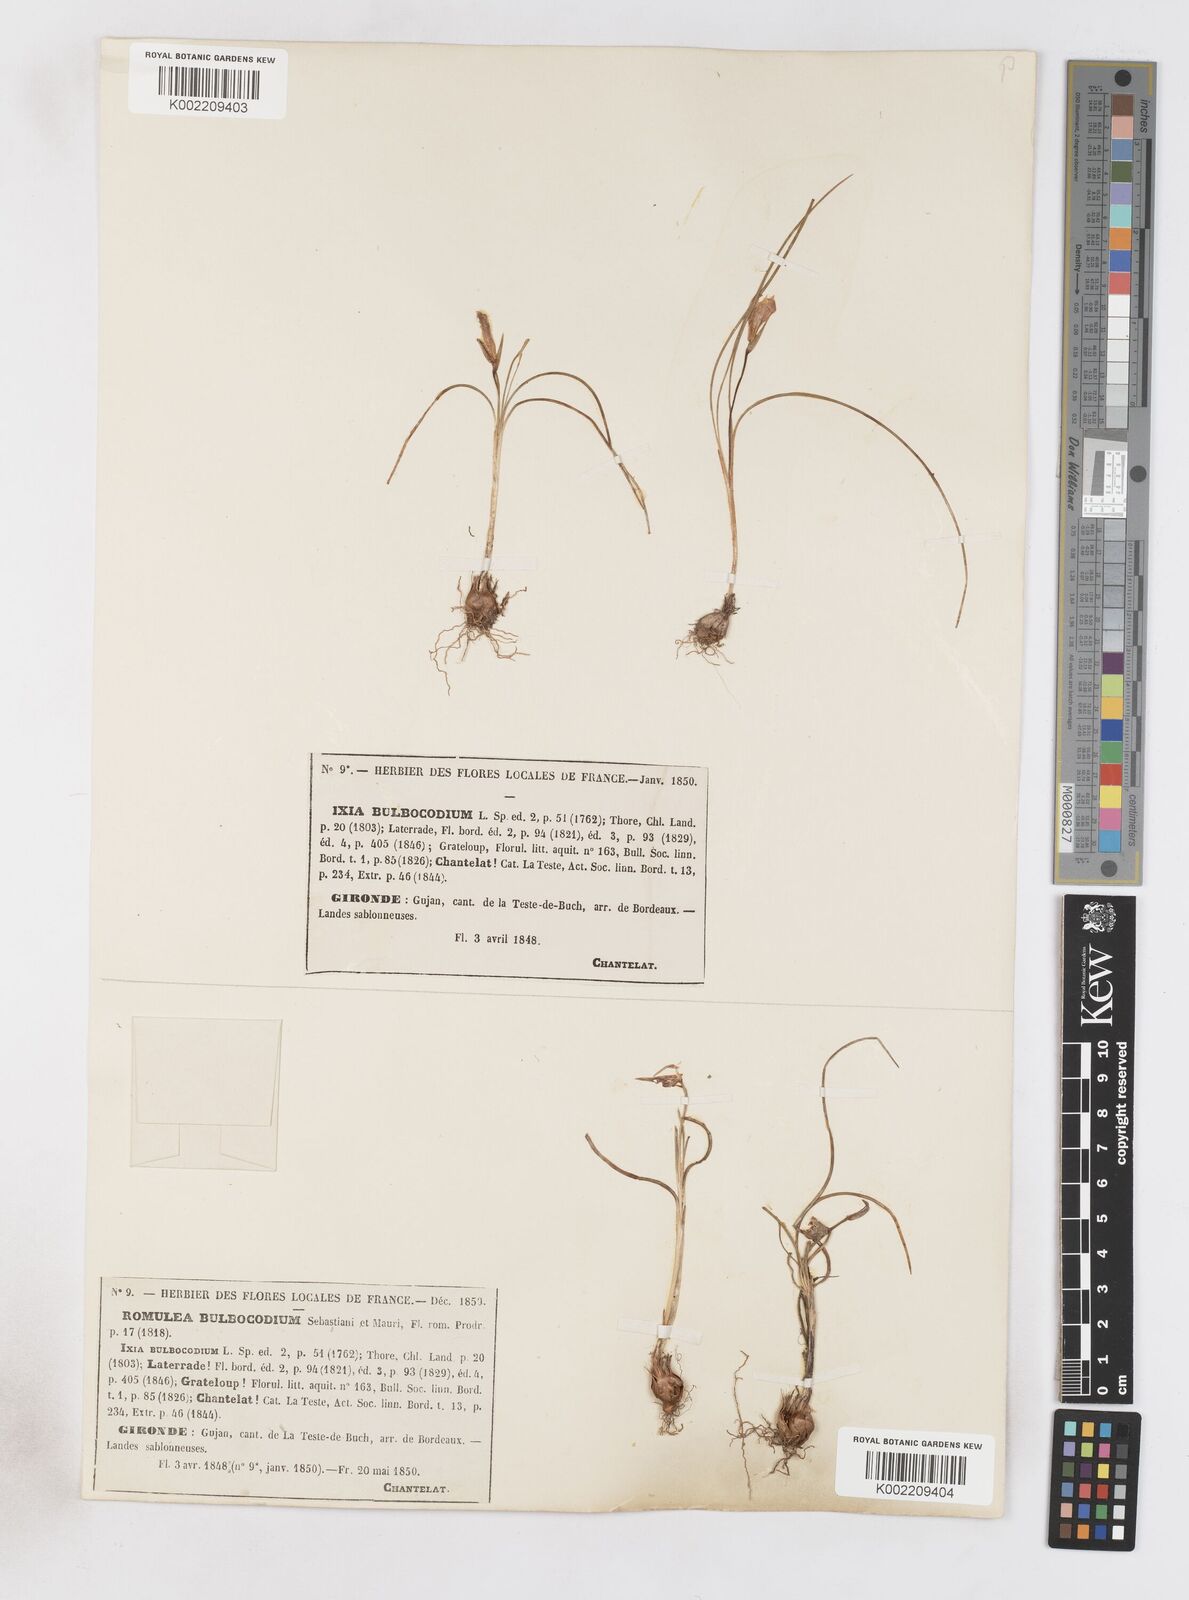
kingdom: Plantae
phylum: Tracheophyta
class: Liliopsida
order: Asparagales
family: Iridaceae
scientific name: Iridaceae
